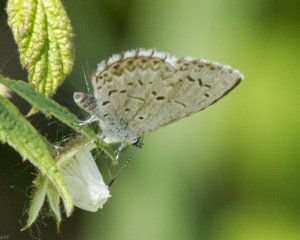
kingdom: Animalia
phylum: Arthropoda
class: Insecta
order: Lepidoptera
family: Lycaenidae
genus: Celastrina
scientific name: Celastrina lucia
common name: Northern Spring Azure
